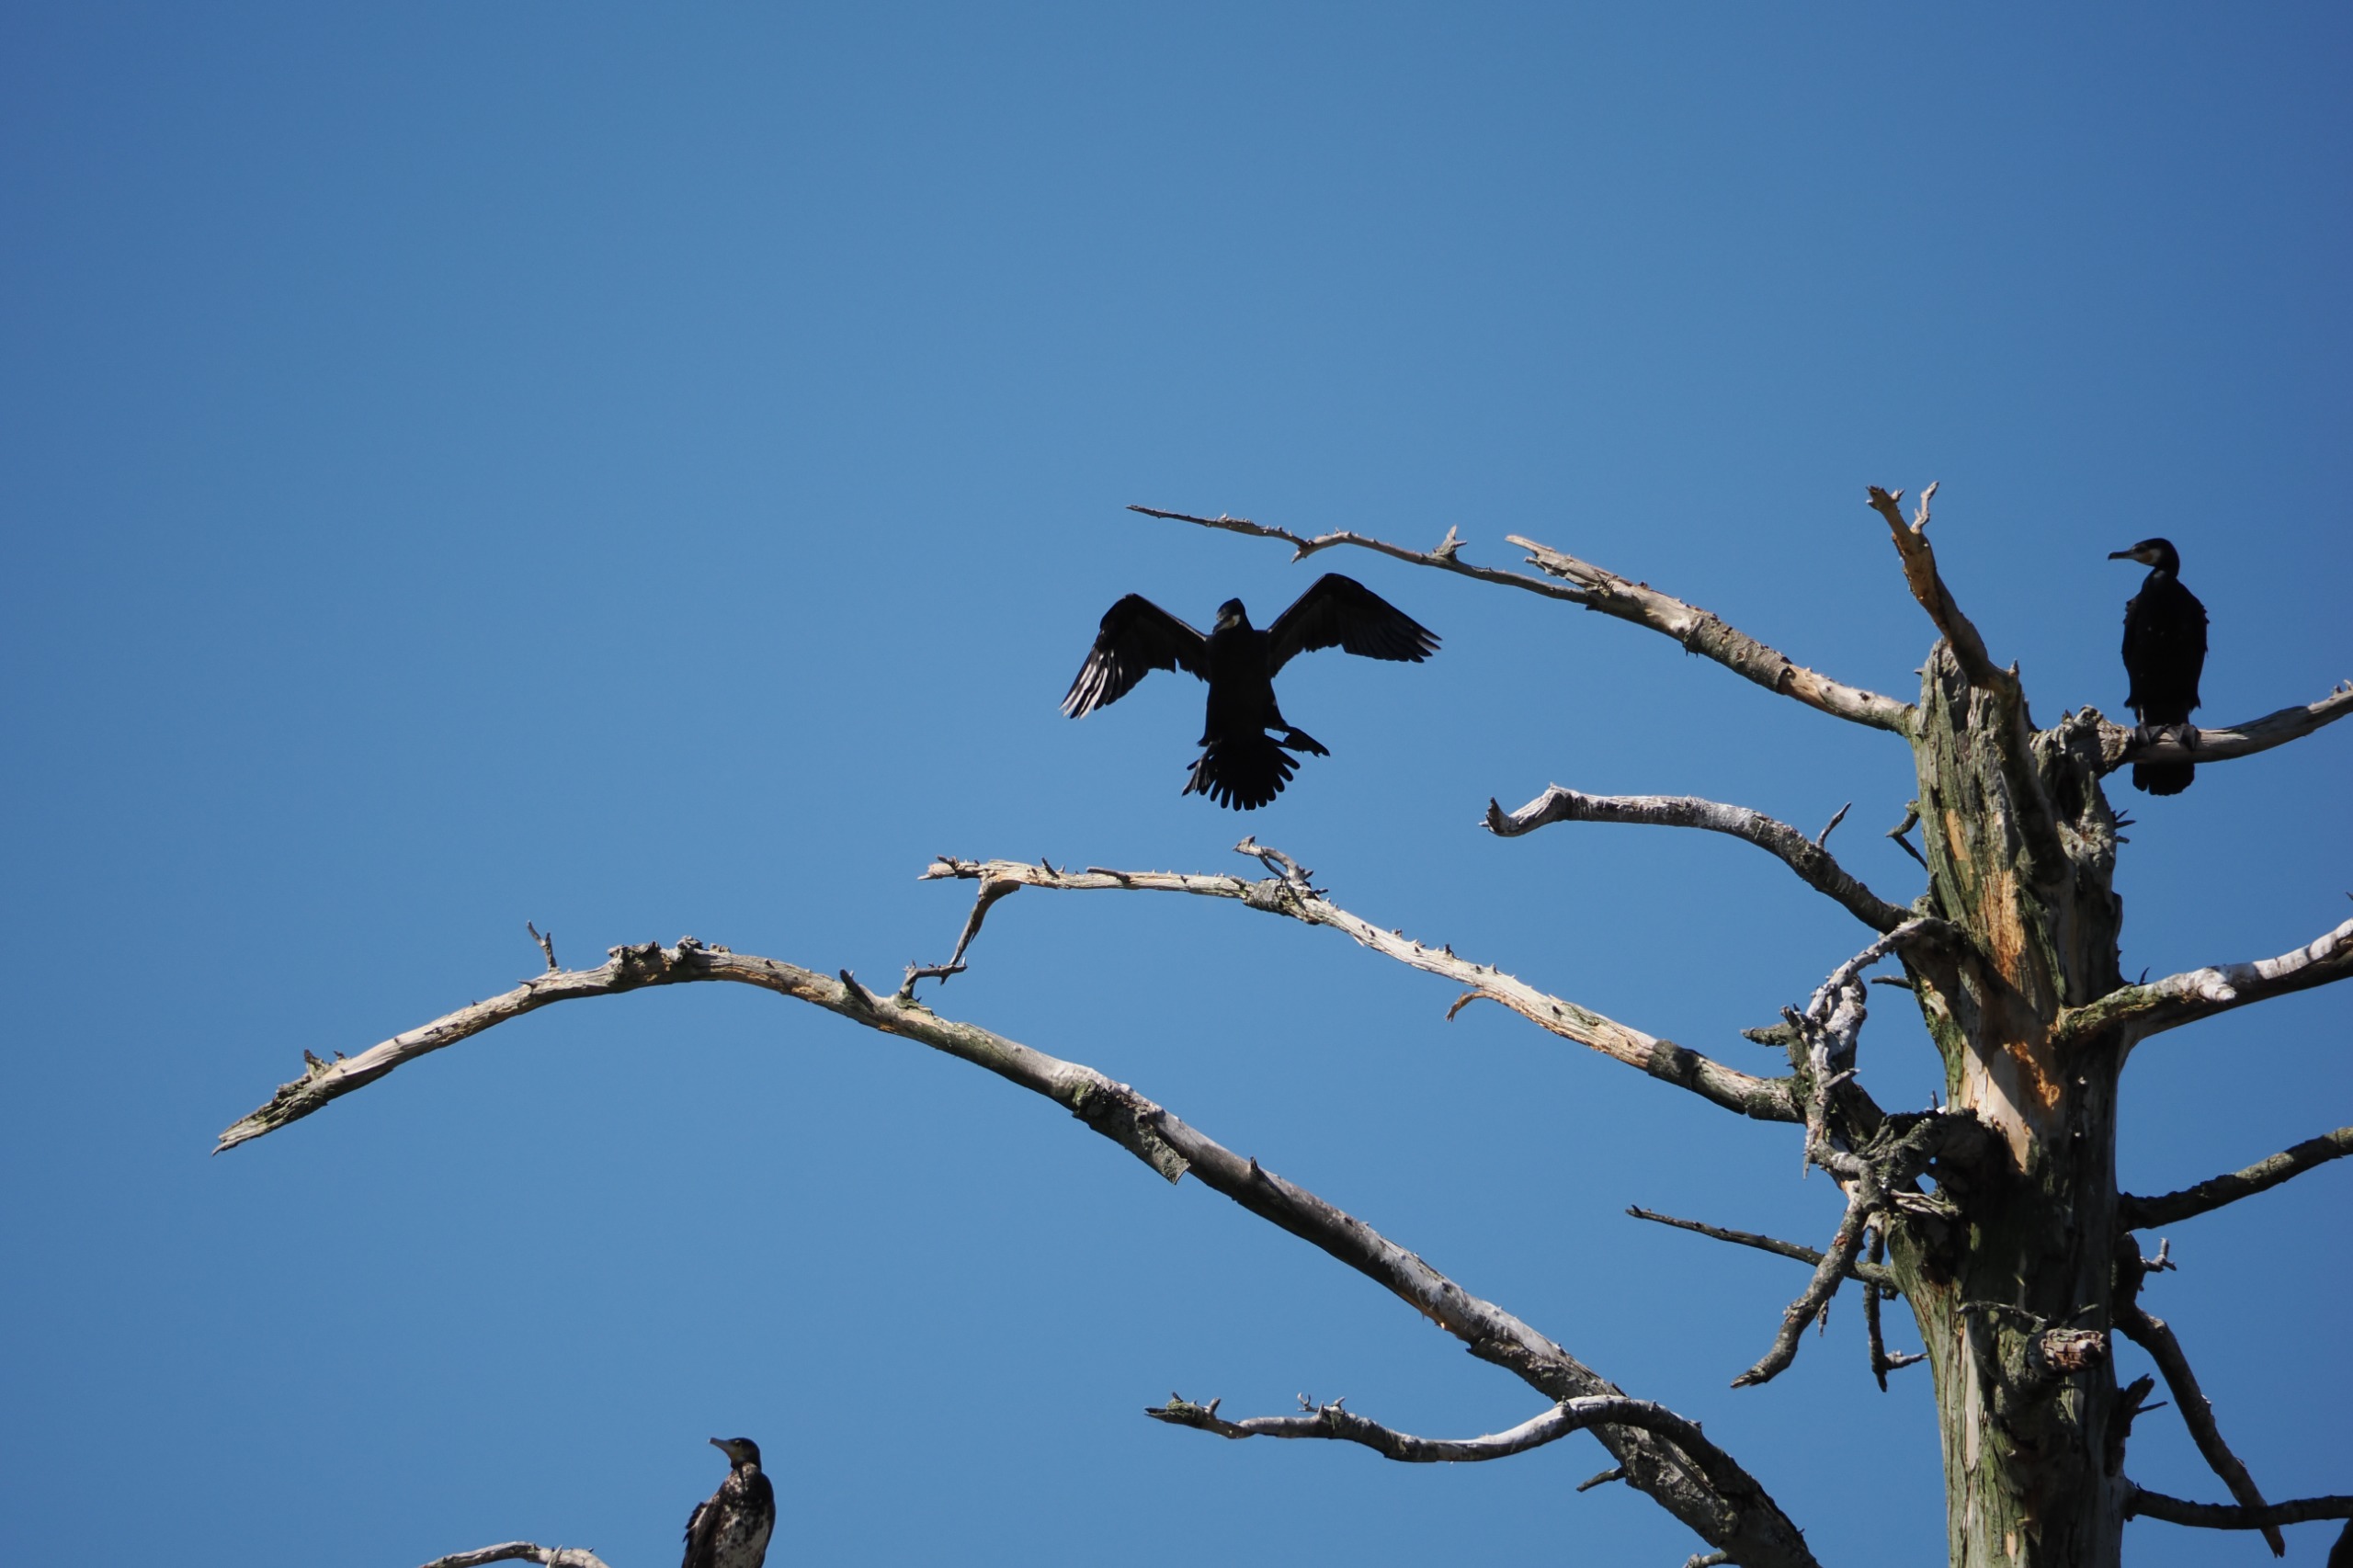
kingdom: Animalia
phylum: Chordata
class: Aves
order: Suliformes
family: Phalacrocoracidae
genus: Phalacrocorax
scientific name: Phalacrocorax carbo
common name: Skarv
